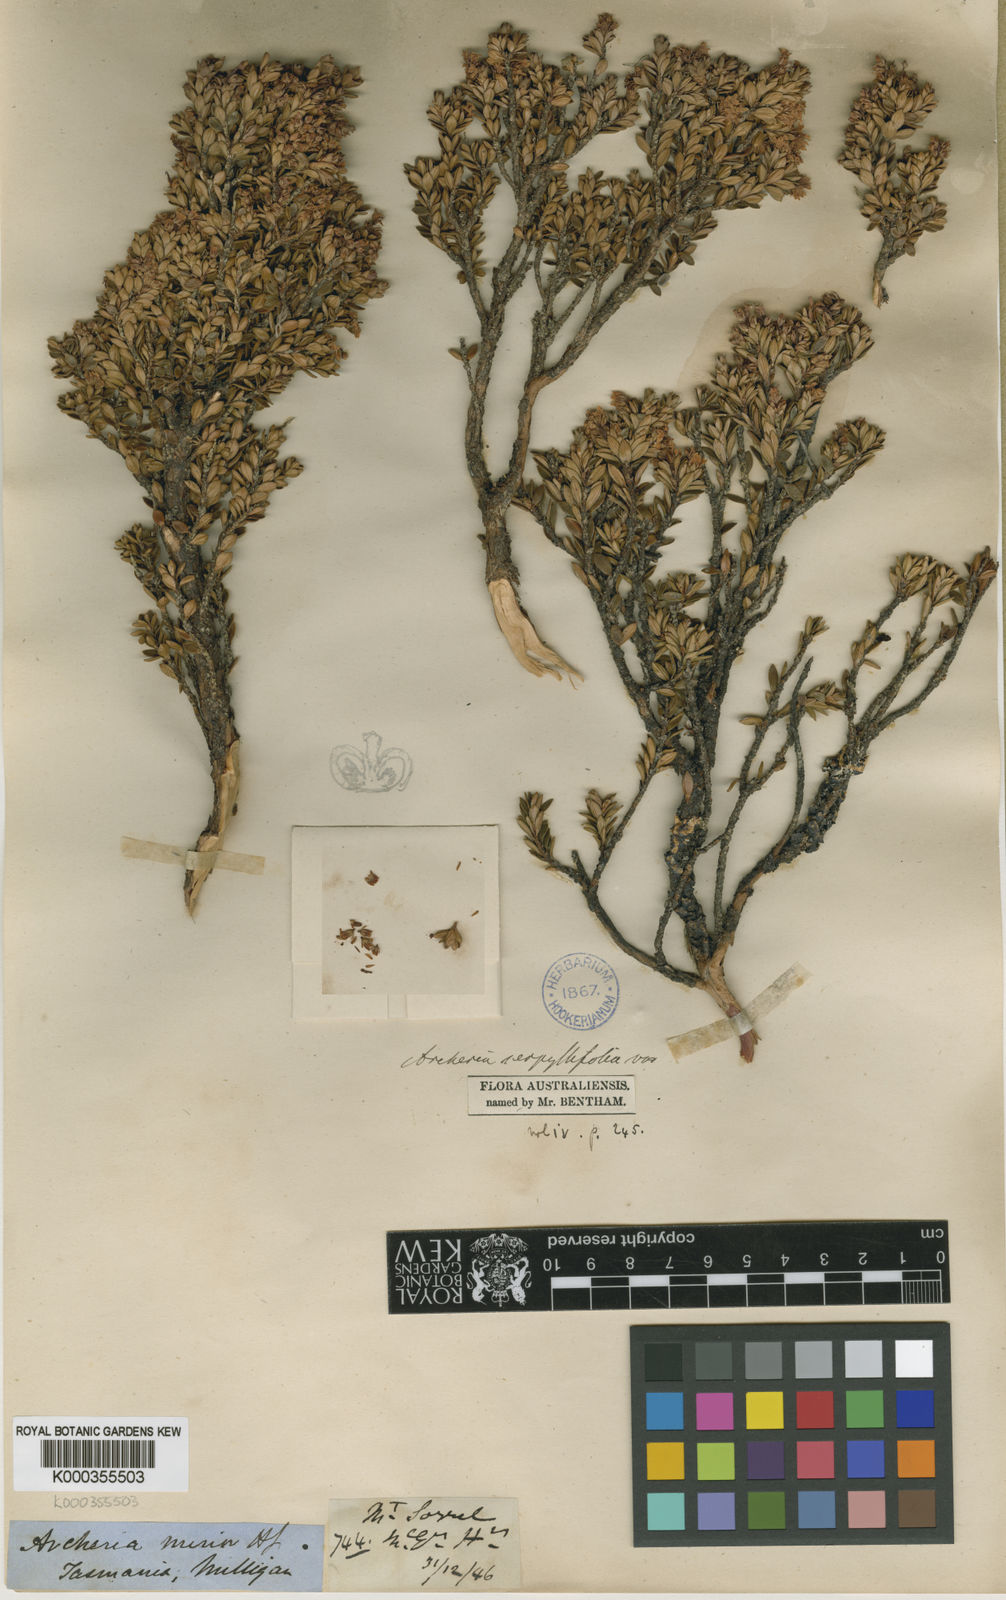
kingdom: Plantae
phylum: Tracheophyta
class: Magnoliopsida
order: Ericales
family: Ericaceae
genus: Archeria
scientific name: Archeria serpyllifolia
